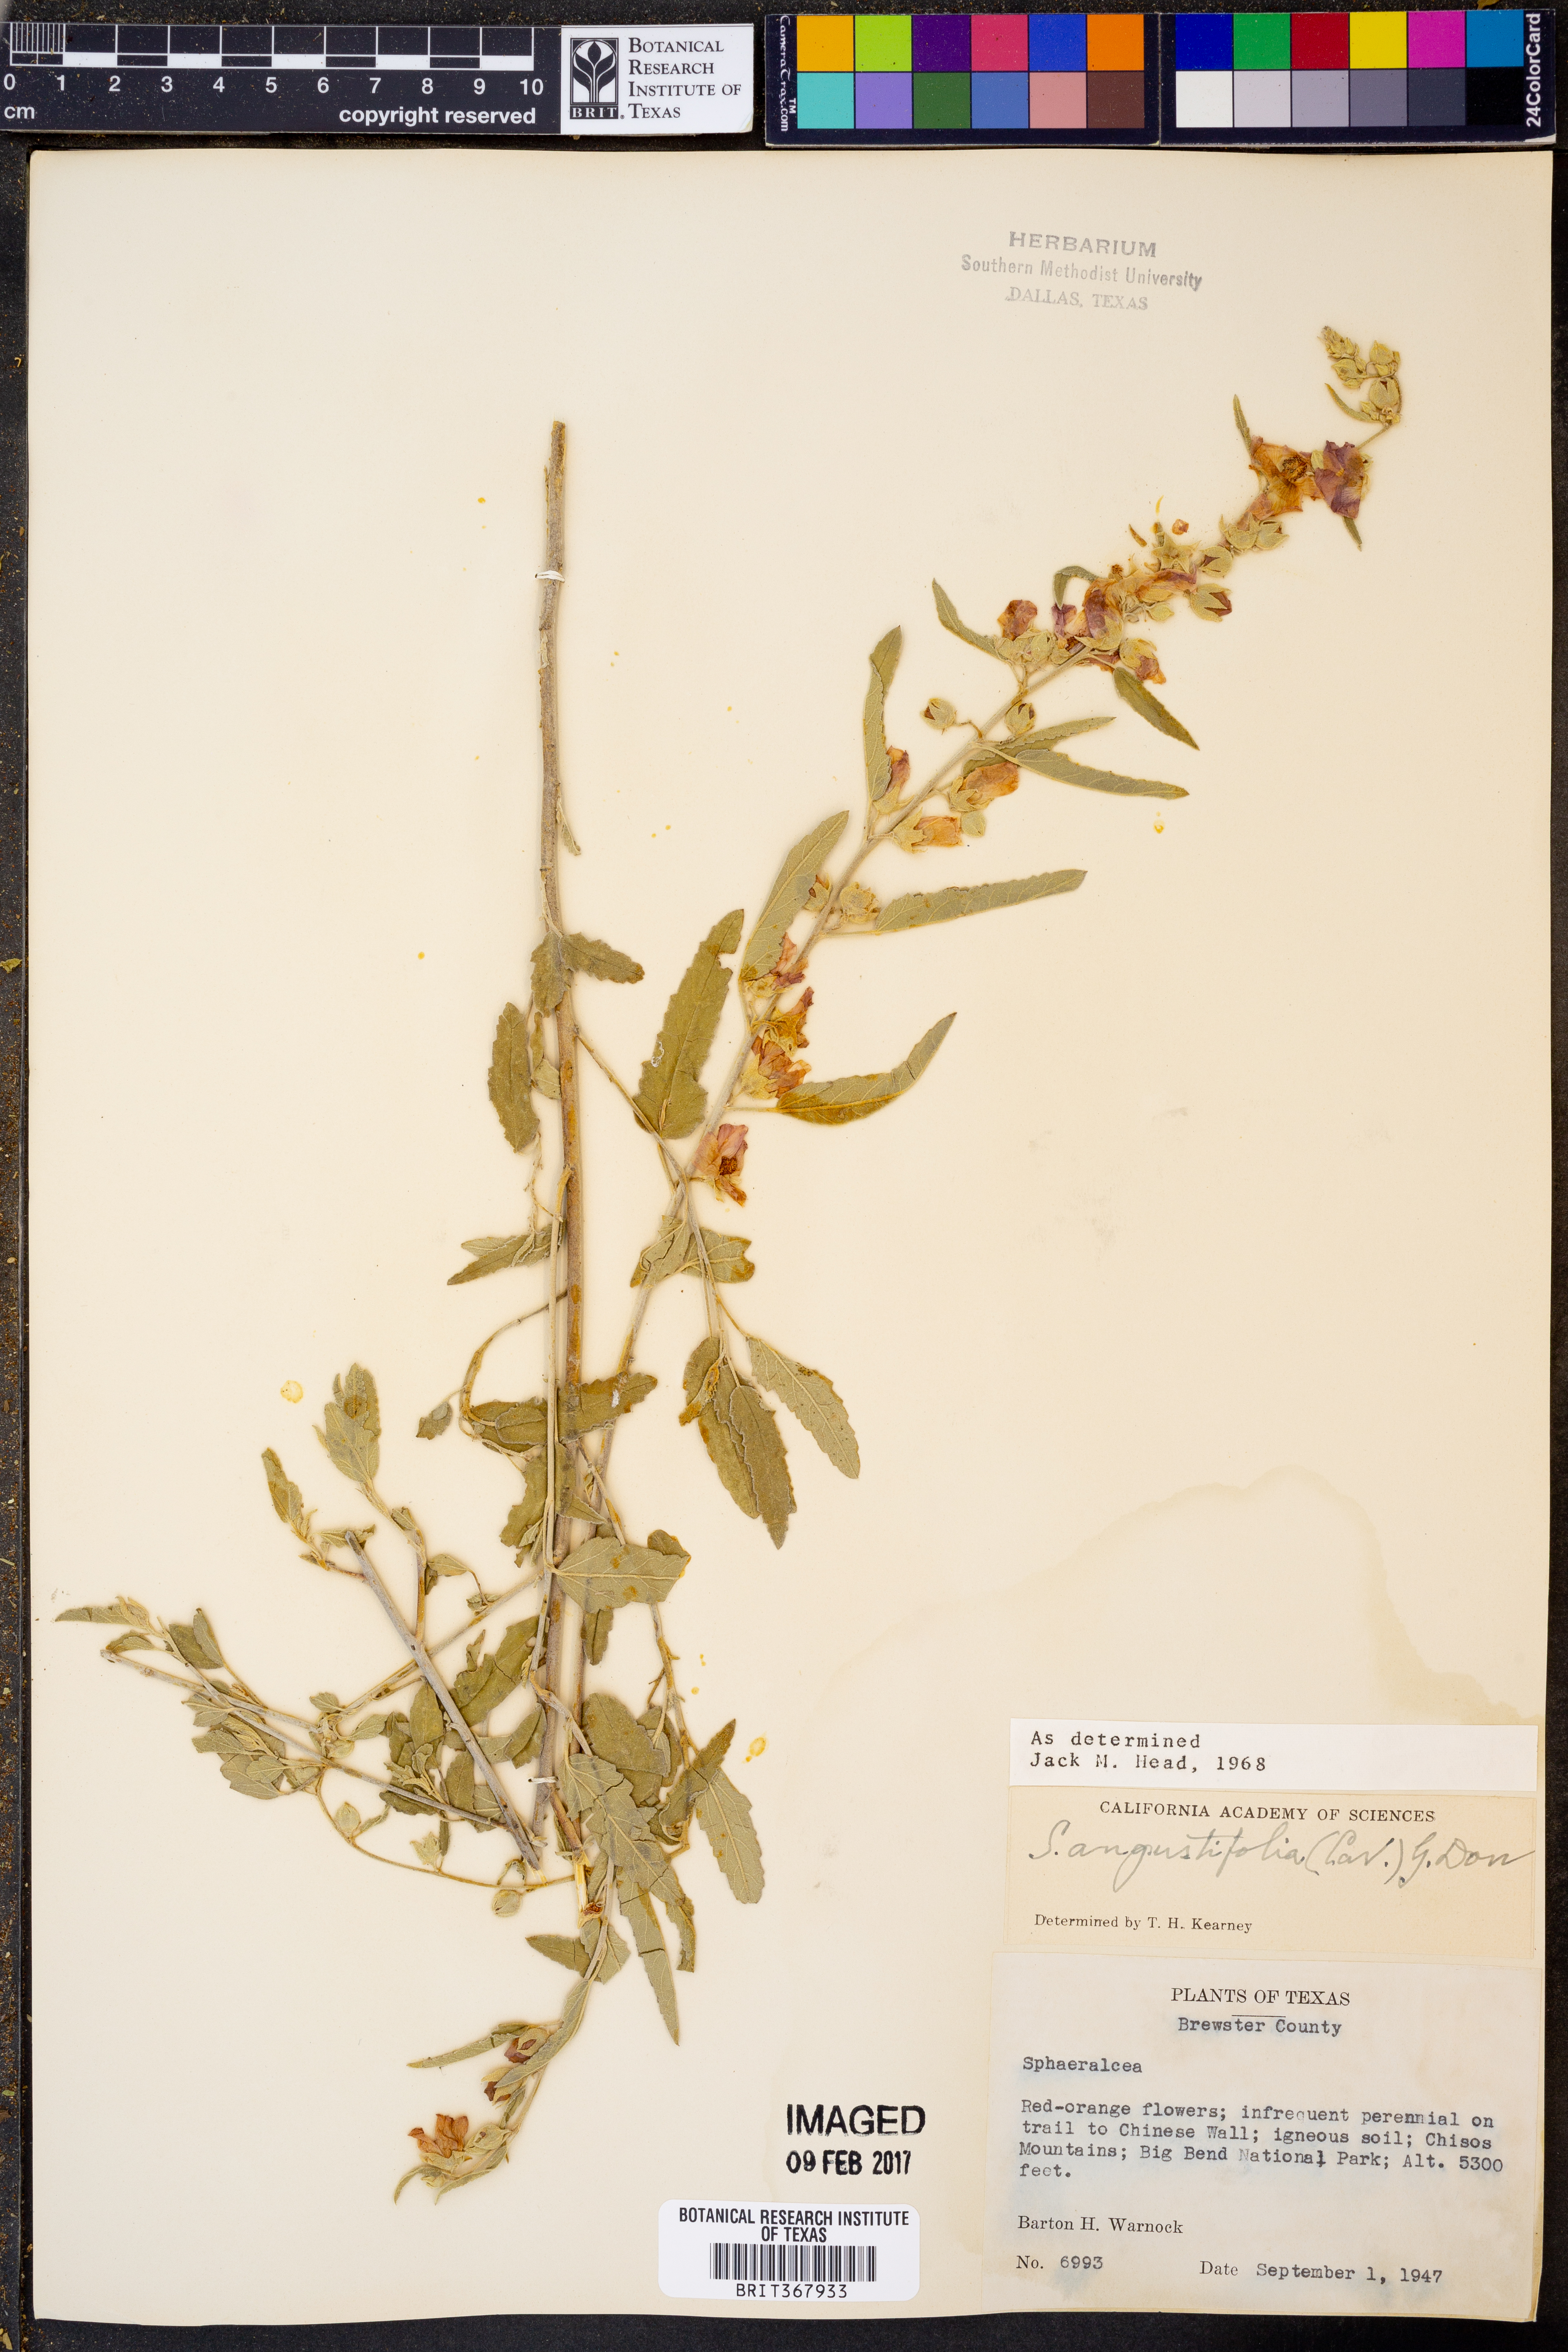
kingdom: Plantae
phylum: Tracheophyta
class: Magnoliopsida
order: Malvales
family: Malvaceae
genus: Sphaeralcea
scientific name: Sphaeralcea angustifolia
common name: Copper globe-mallow
